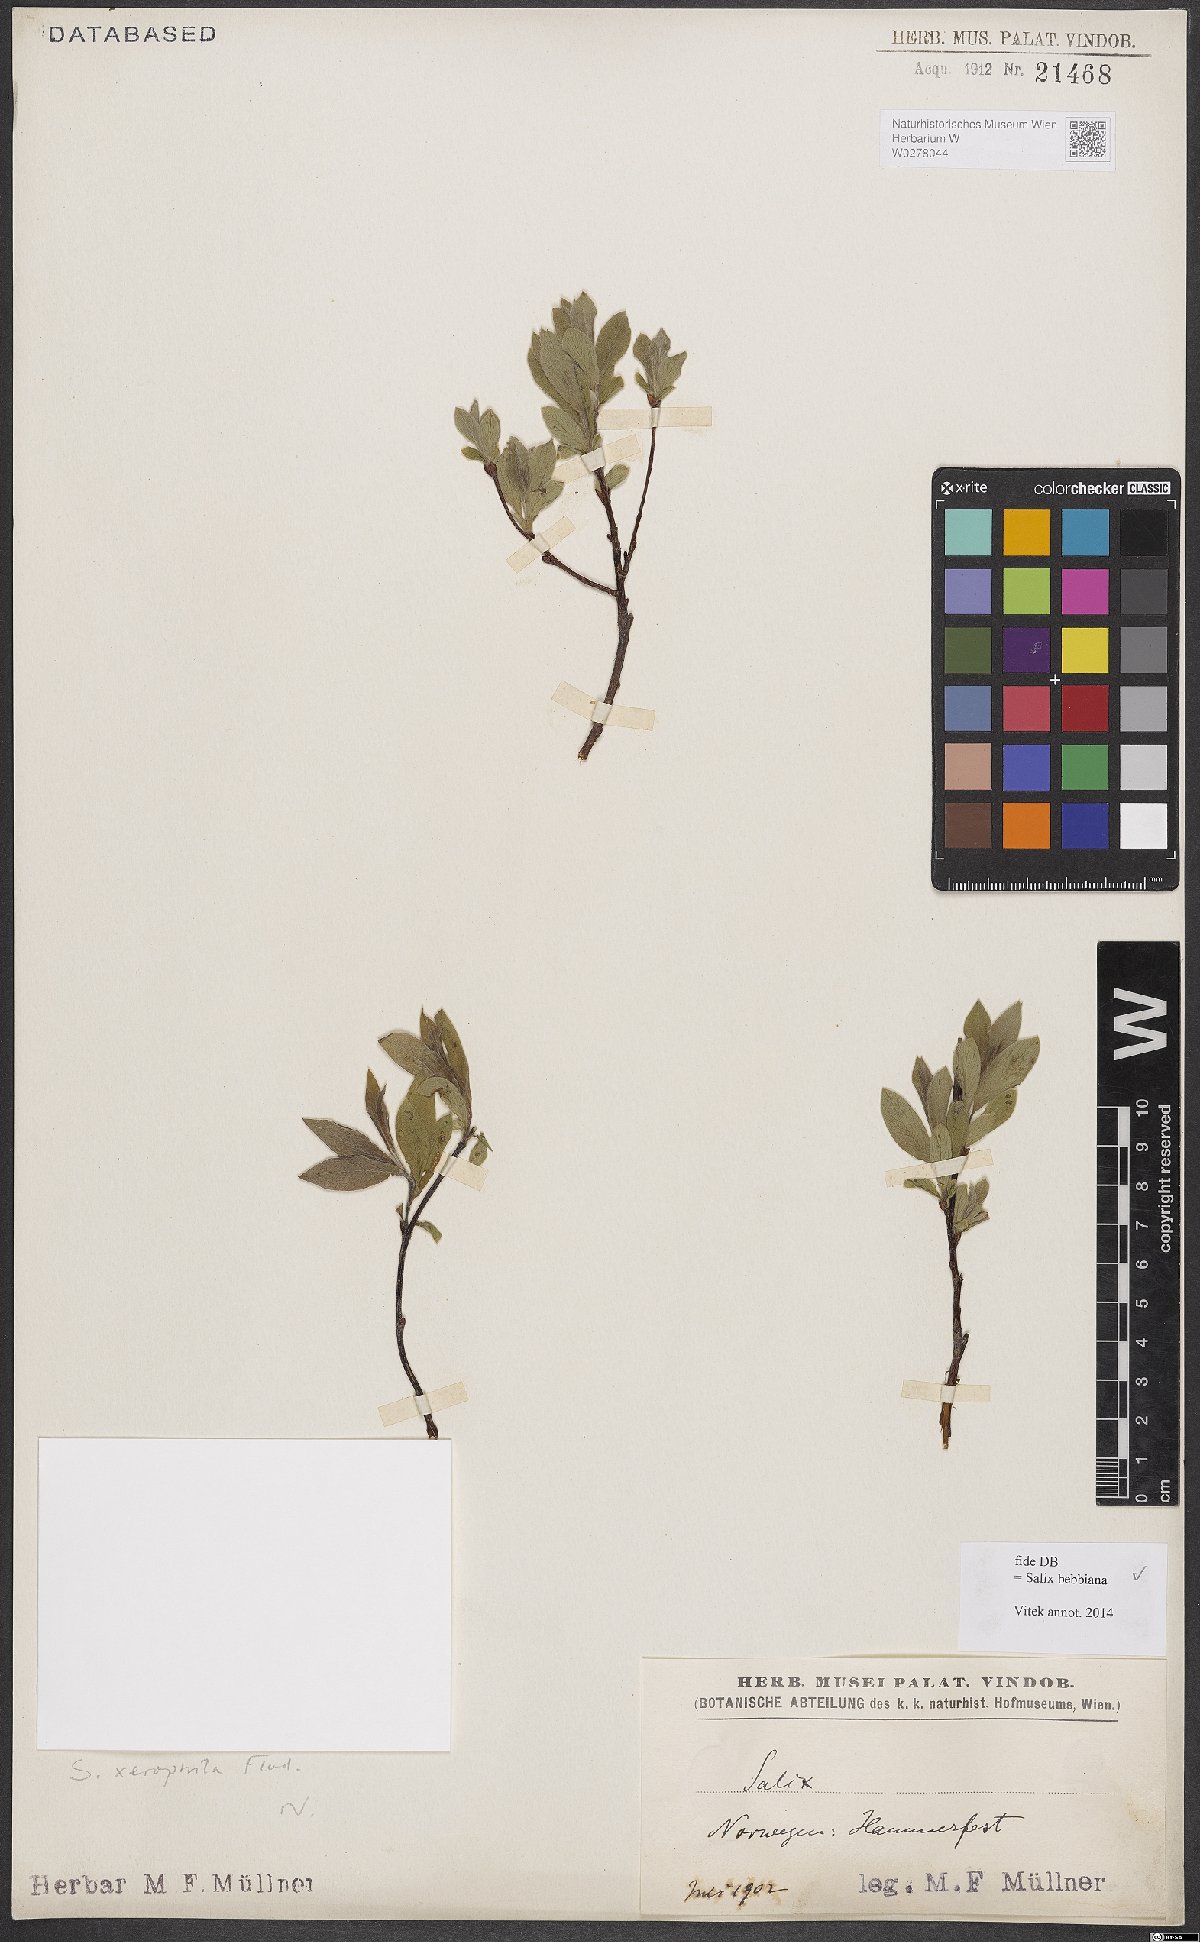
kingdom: Plantae
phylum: Tracheophyta
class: Magnoliopsida
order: Malpighiales
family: Salicaceae
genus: Salix
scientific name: Salix bebbiana
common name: Bebb's willow
